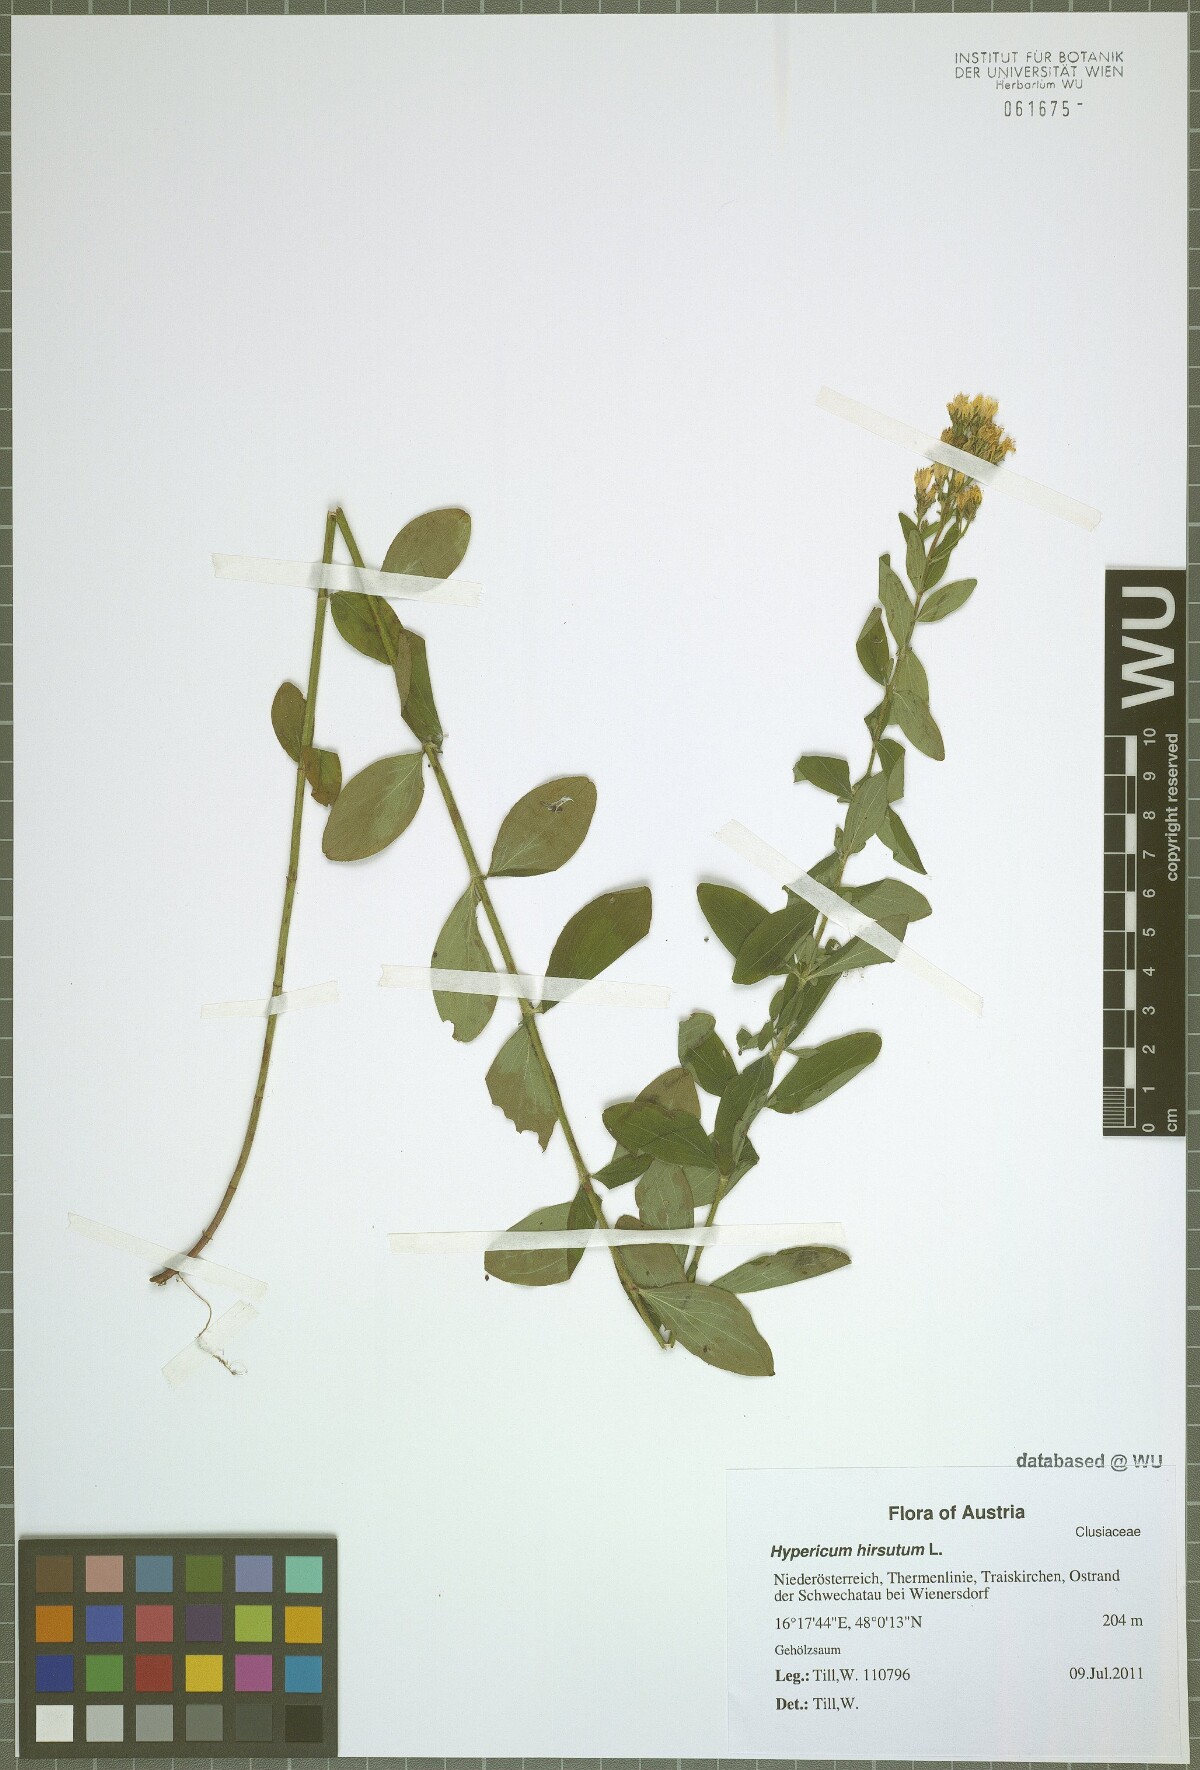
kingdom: Plantae
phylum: Tracheophyta
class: Magnoliopsida
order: Malpighiales
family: Hypericaceae
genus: Hypericum
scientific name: Hypericum hirsutum
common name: Hairy st. john's-wort
